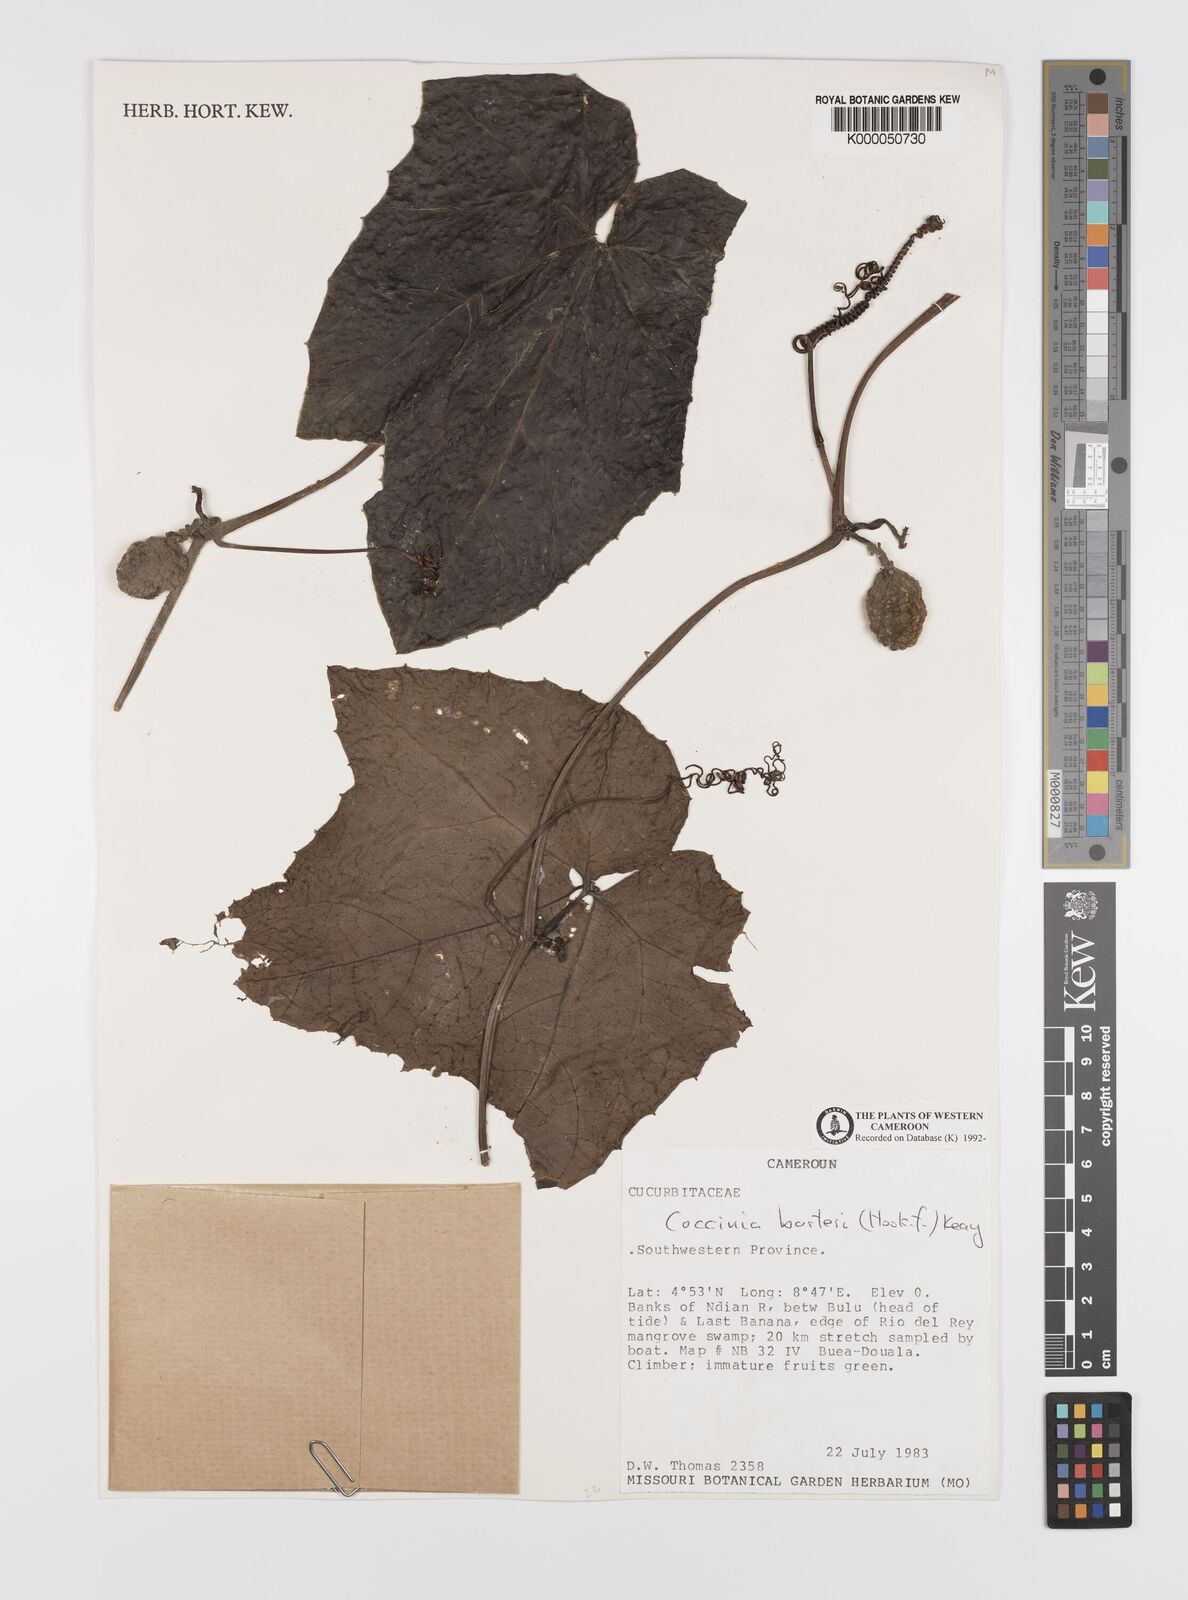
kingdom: Plantae
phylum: Tracheophyta
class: Magnoliopsida
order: Cucurbitales
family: Cucurbitaceae
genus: Coccinia
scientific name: Coccinia barteri
